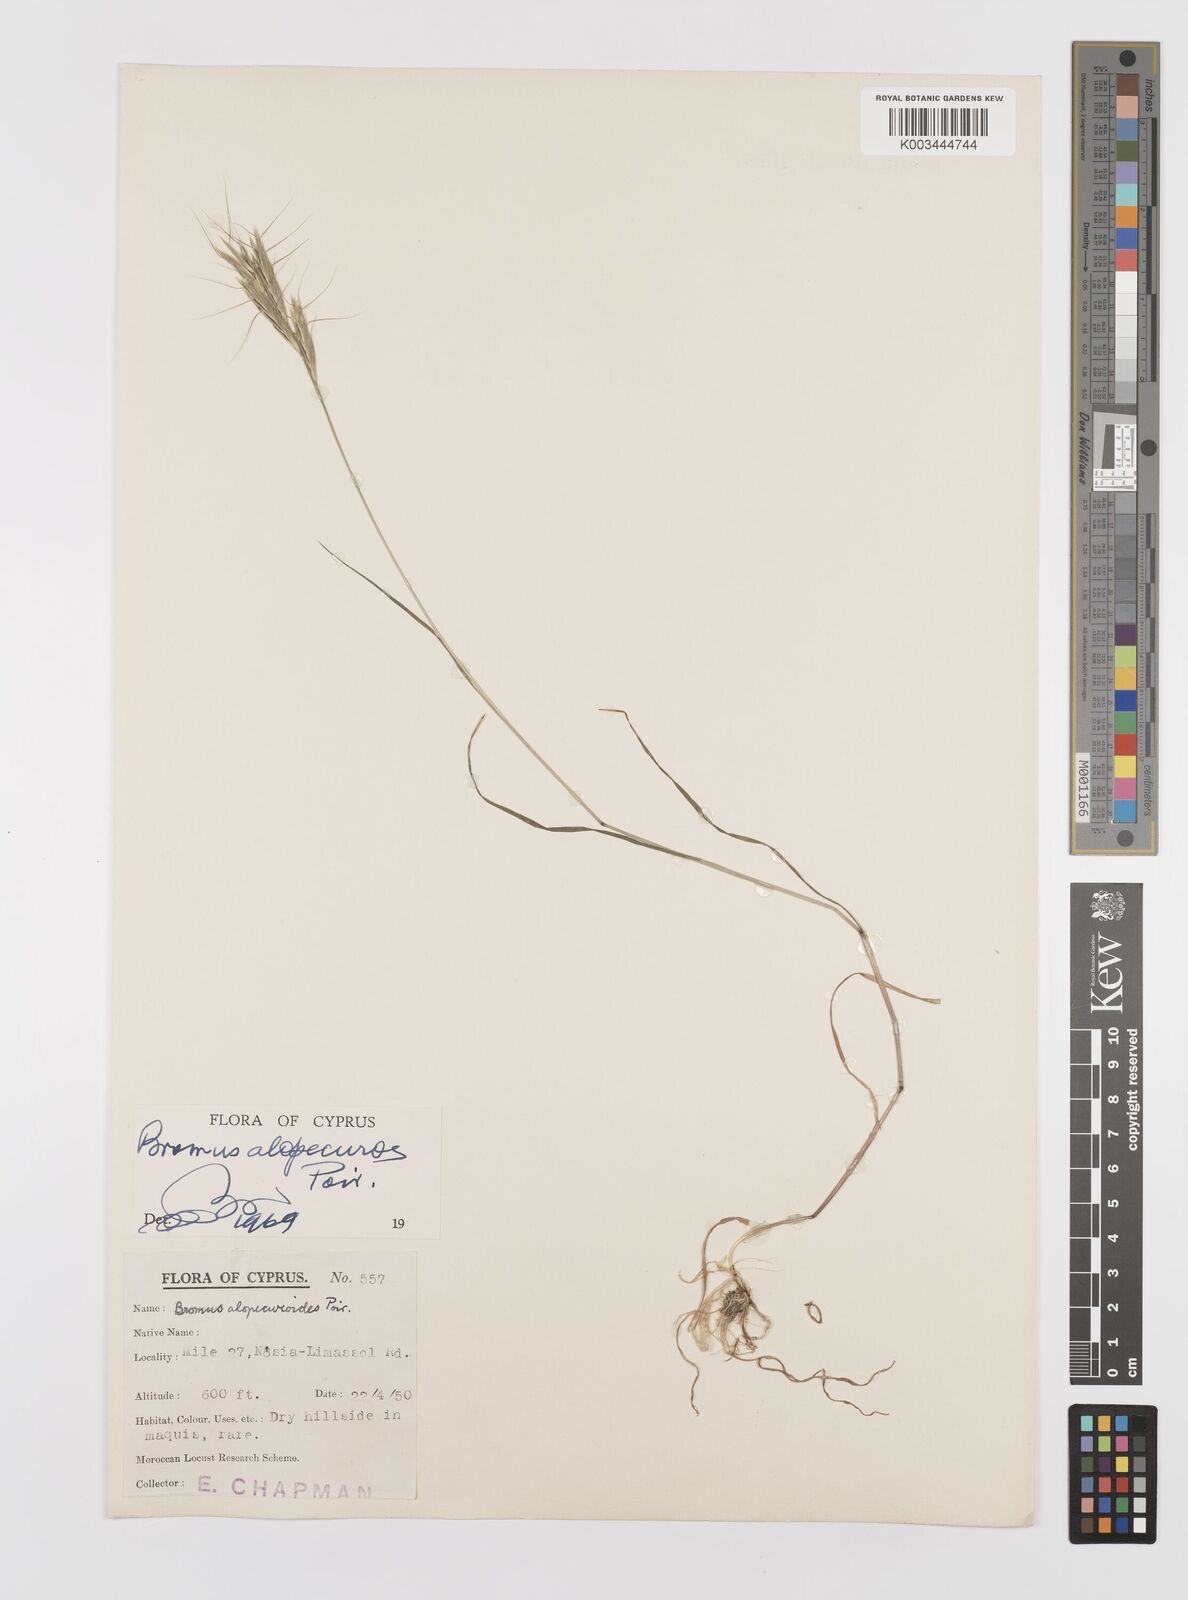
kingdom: Plantae
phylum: Tracheophyta
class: Liliopsida
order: Poales
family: Poaceae
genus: Bromus
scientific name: Bromus alopecuros
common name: Weedy brome
